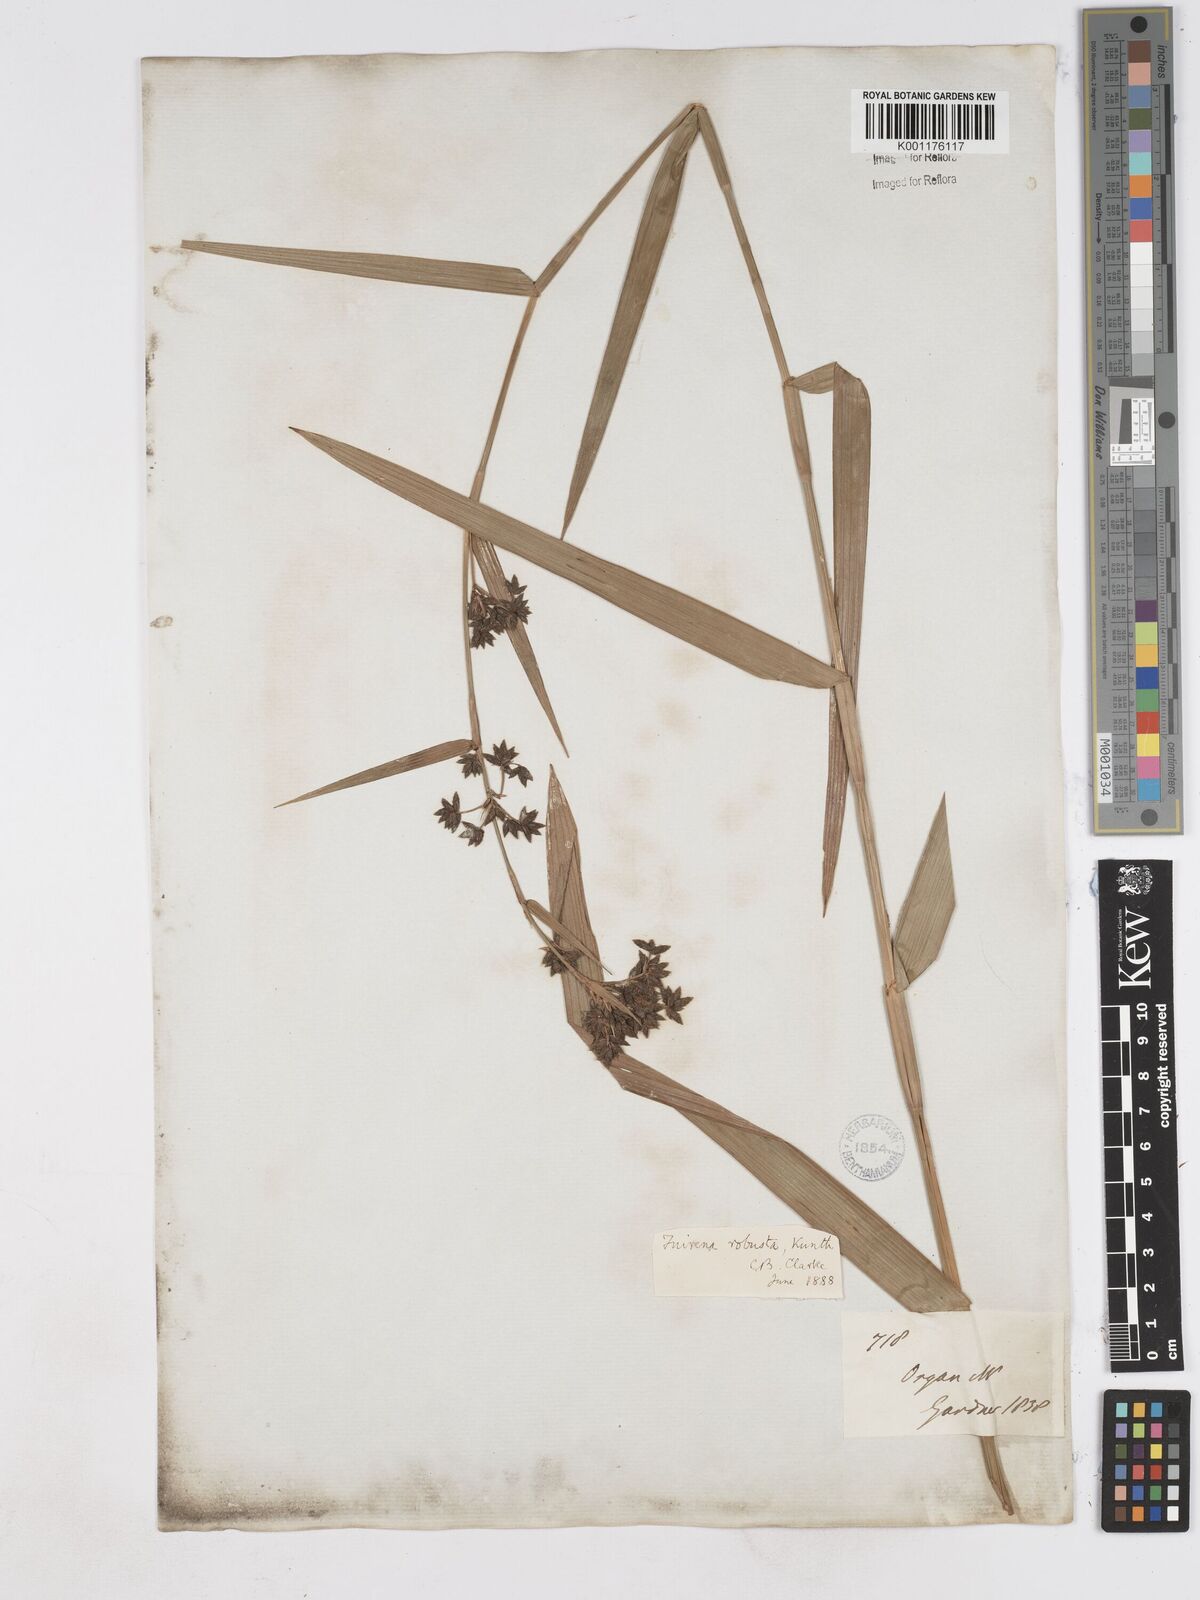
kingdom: Plantae
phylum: Tracheophyta
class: Liliopsida
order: Poales
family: Cyperaceae
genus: Fuirena
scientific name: Fuirena robusta
